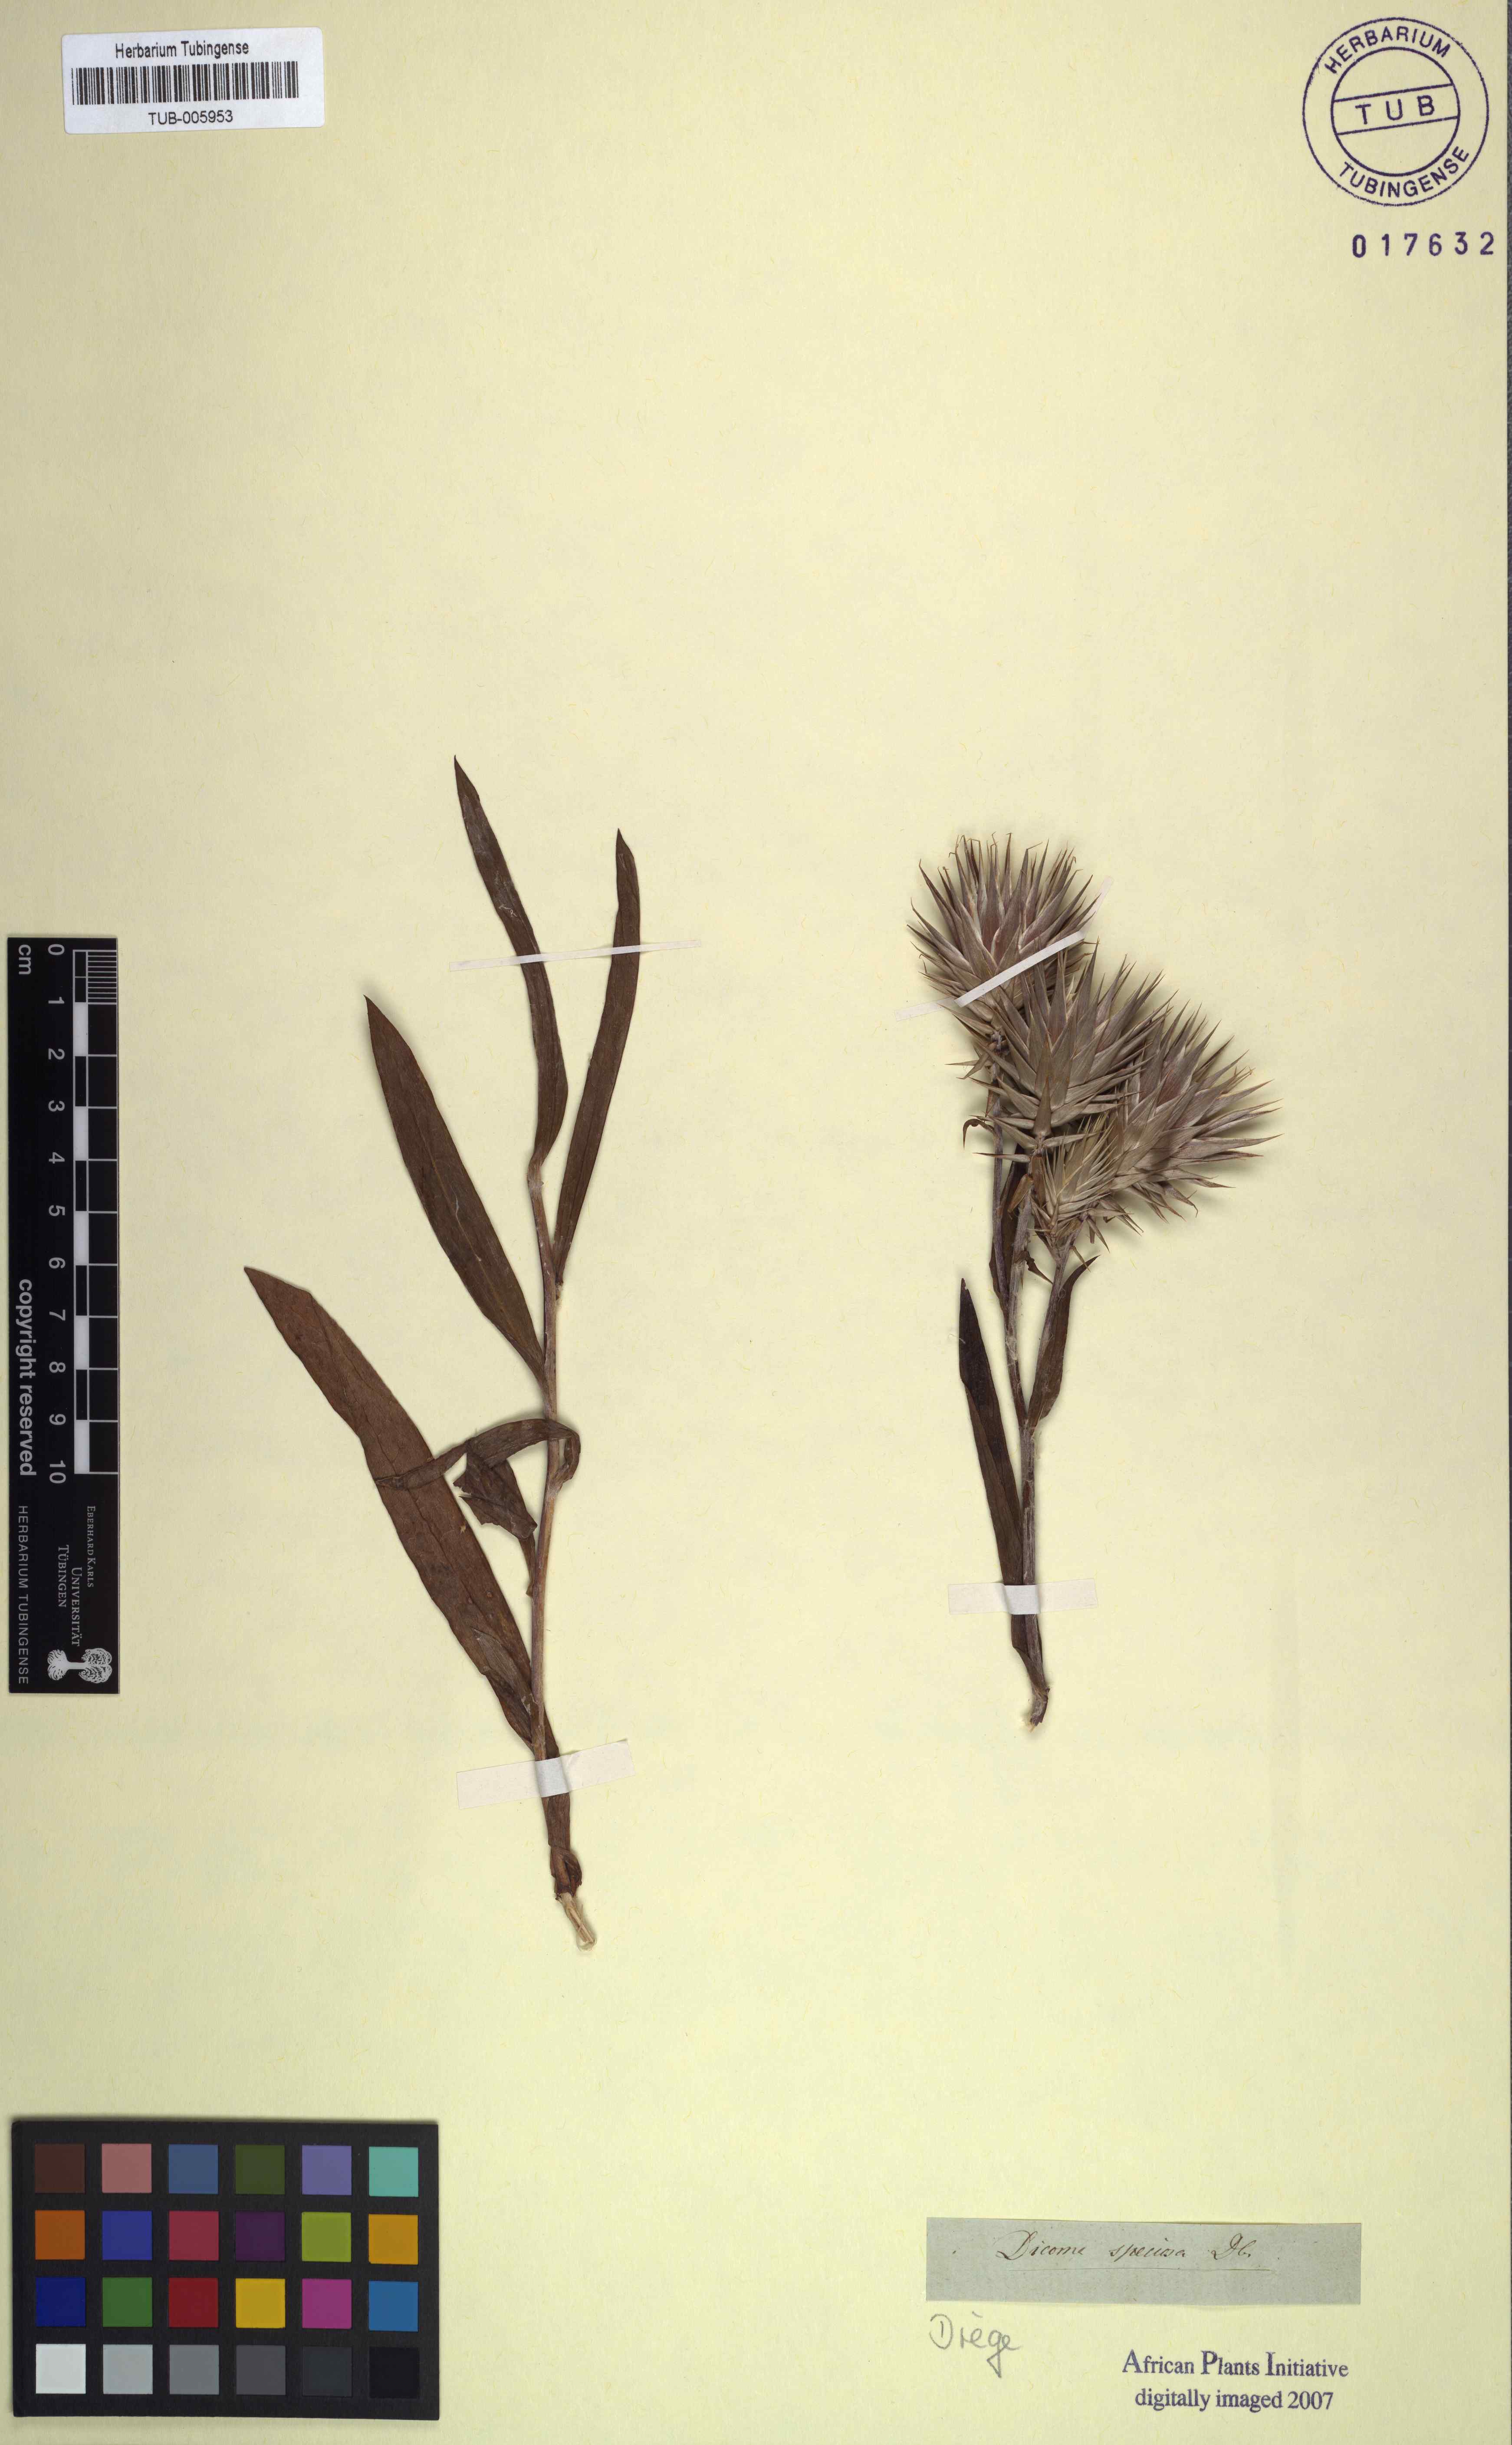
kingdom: Plantae
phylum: Tracheophyta
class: Magnoliopsida
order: Asterales
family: Asteraceae
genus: Macledium
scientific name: Macledium speciosum
